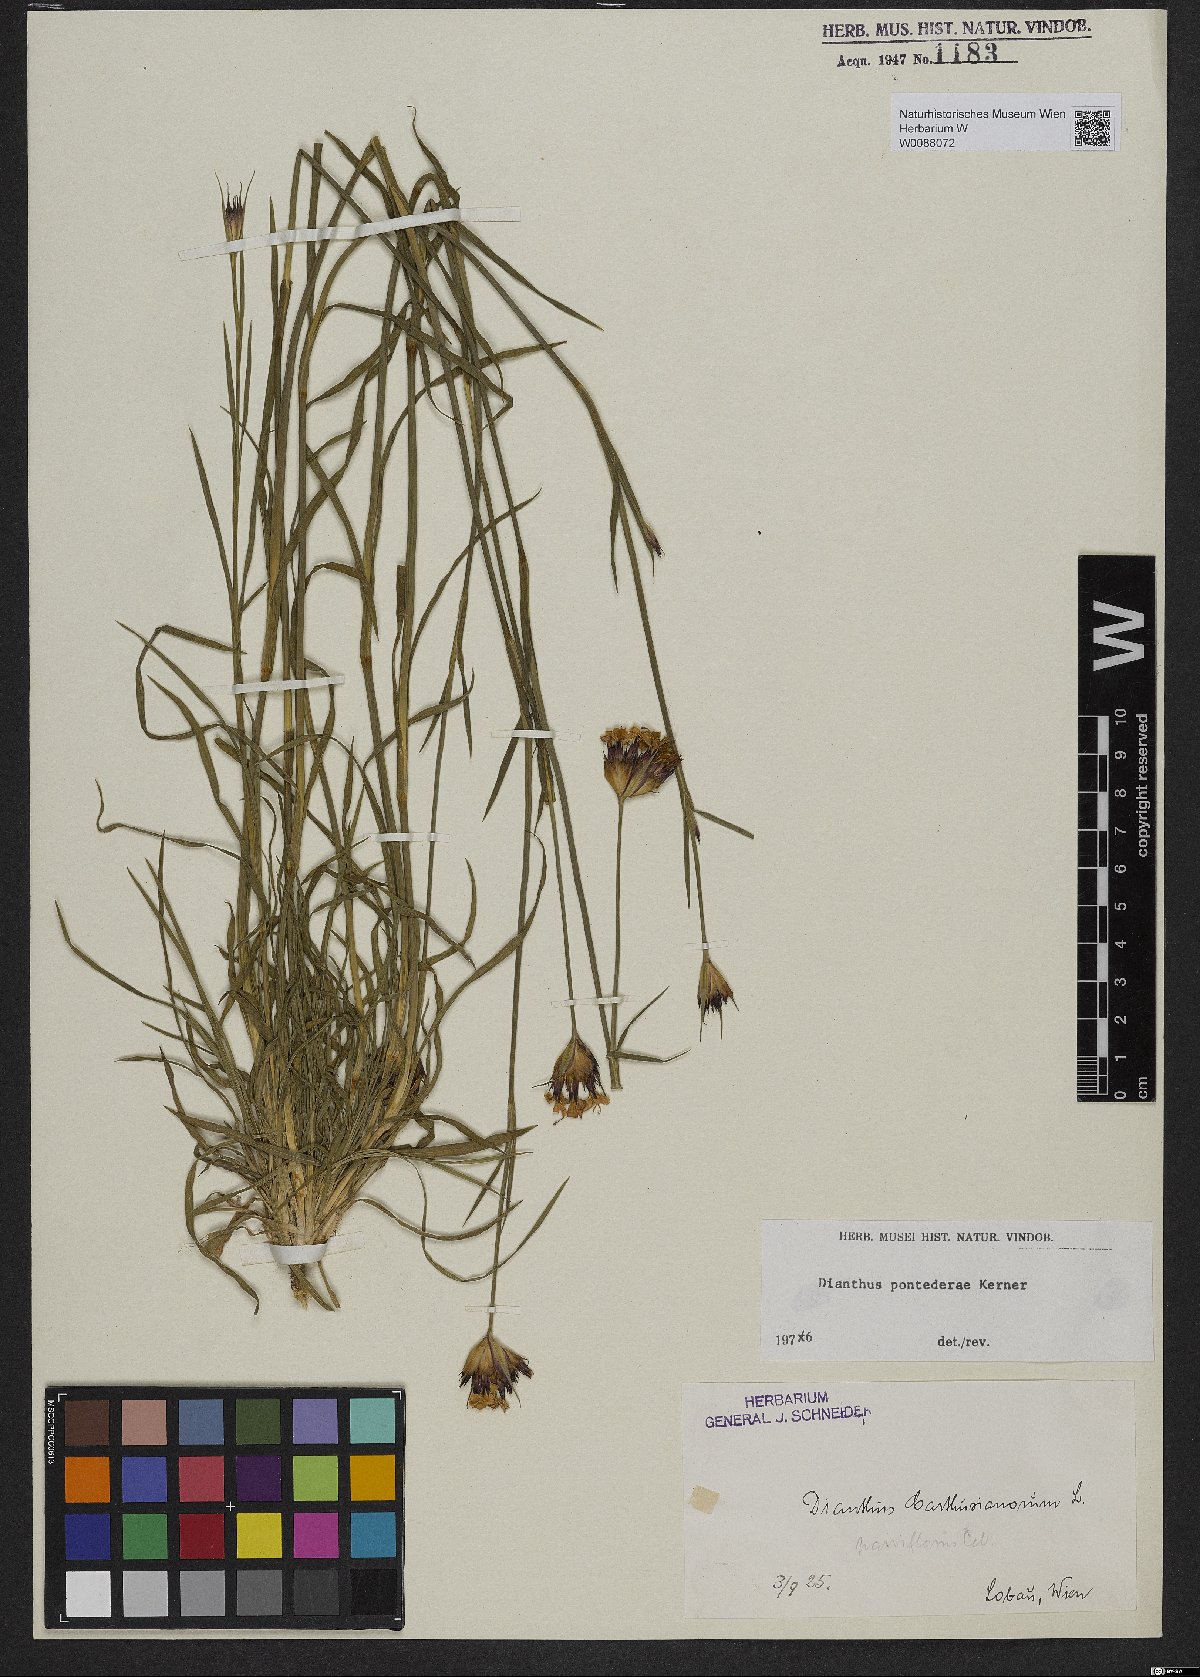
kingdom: Plantae
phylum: Tracheophyta
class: Magnoliopsida
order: Caryophyllales
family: Caryophyllaceae
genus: Dianthus
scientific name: Dianthus pontederae
